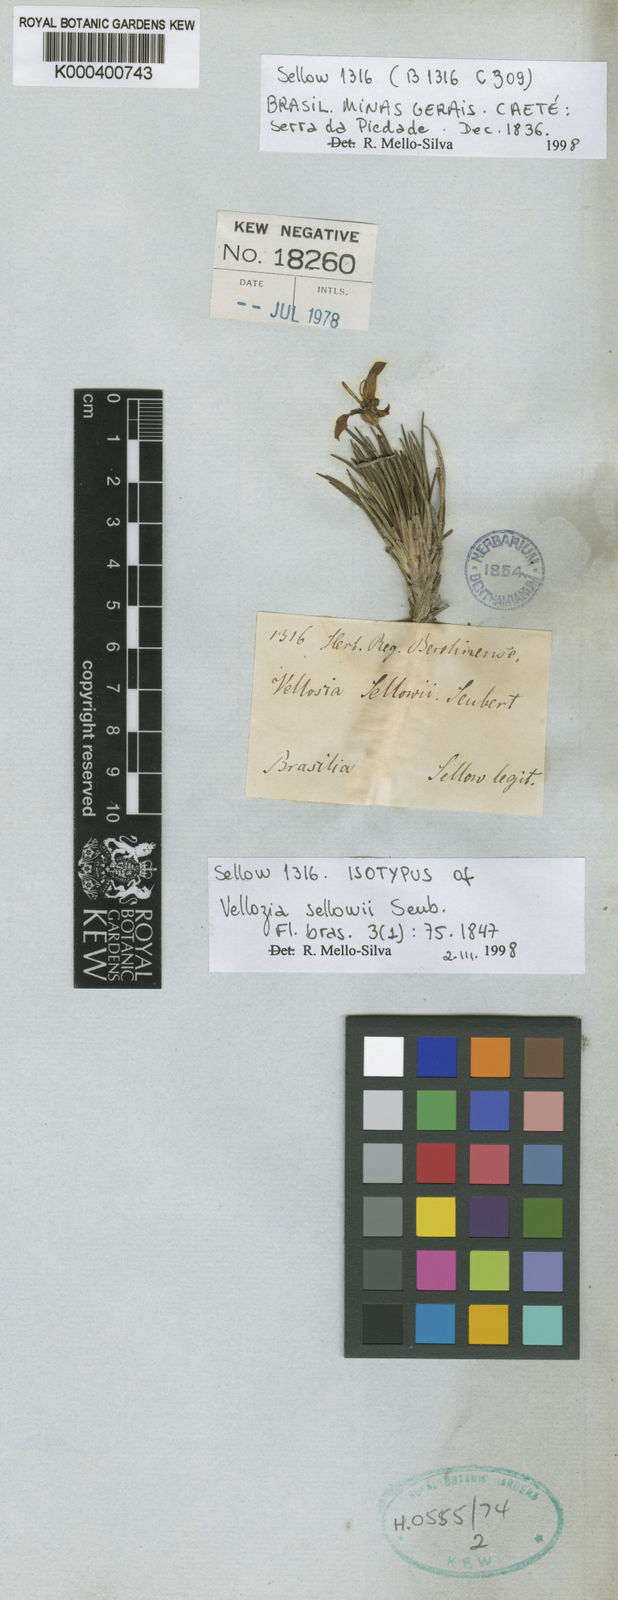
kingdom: Plantae
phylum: Tracheophyta
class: Liliopsida
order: Pandanales
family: Velloziaceae
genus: Vellozia
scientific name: Vellozia sellowii
